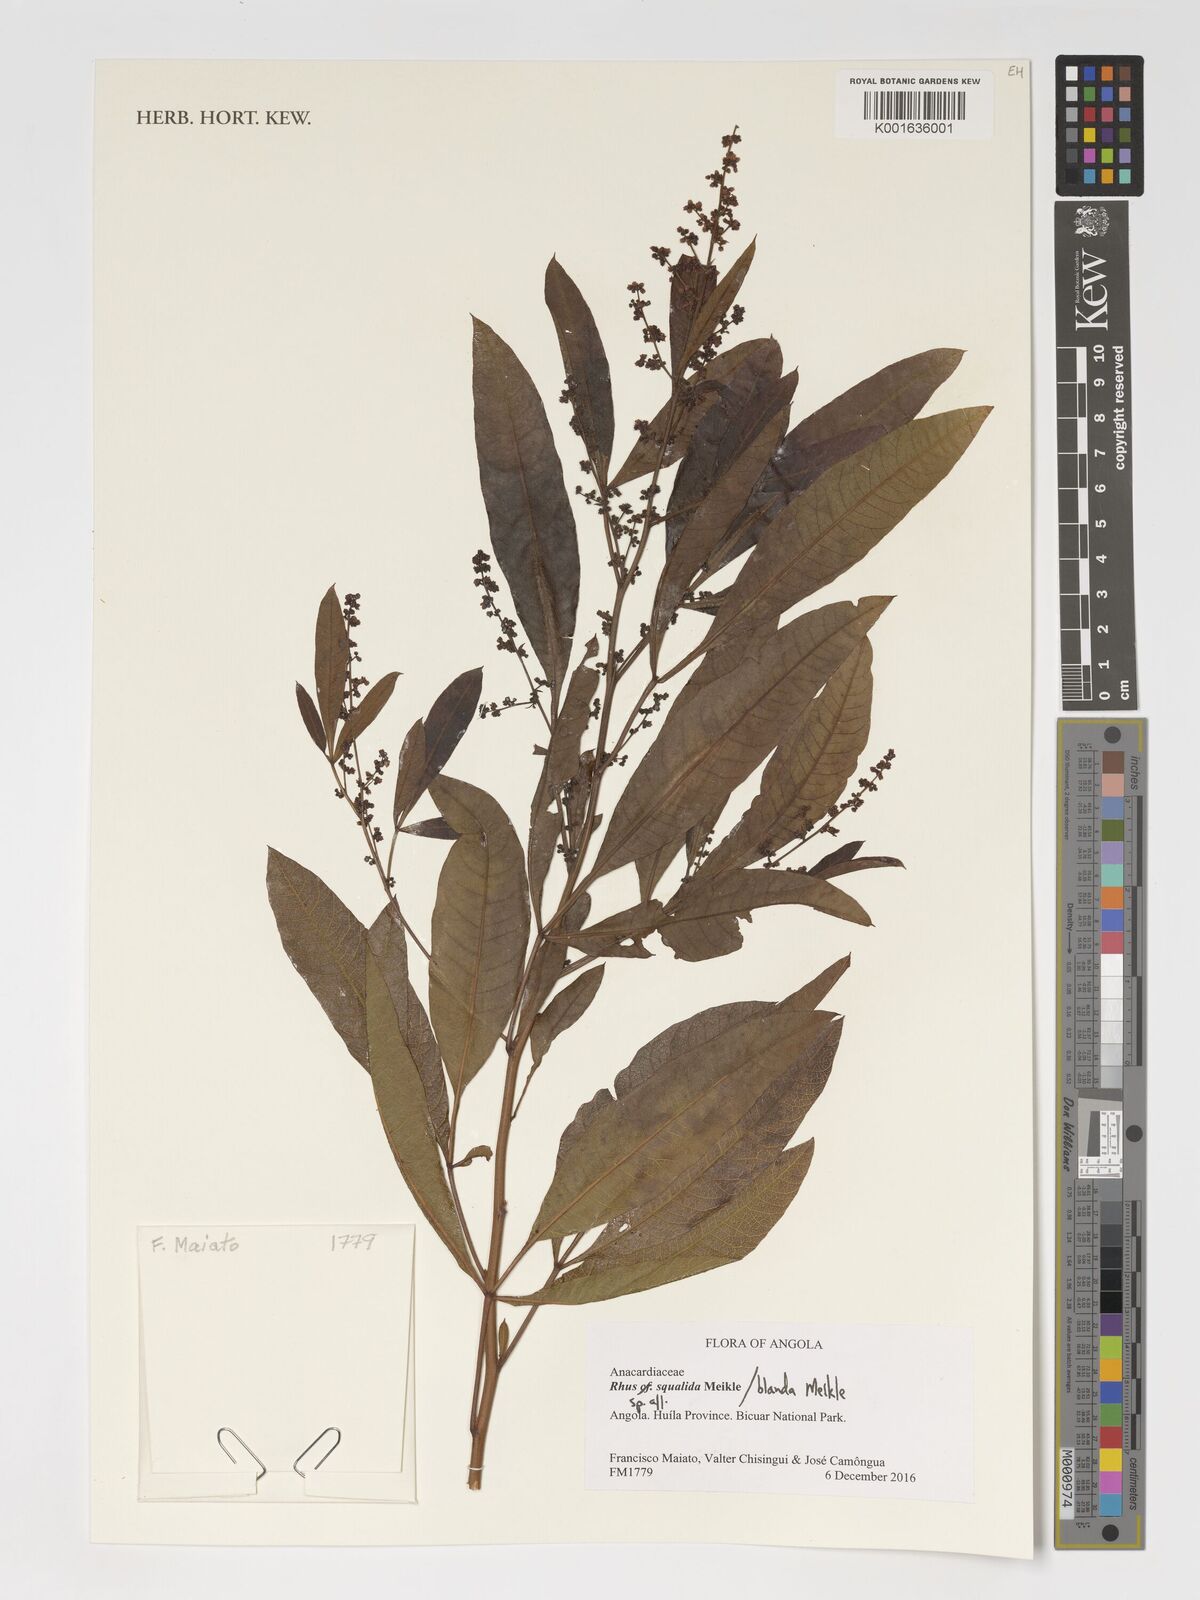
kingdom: Plantae
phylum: Tracheophyta
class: Magnoliopsida
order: Sapindales
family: Anacardiaceae
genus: Searsia
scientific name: Searsia blanda
